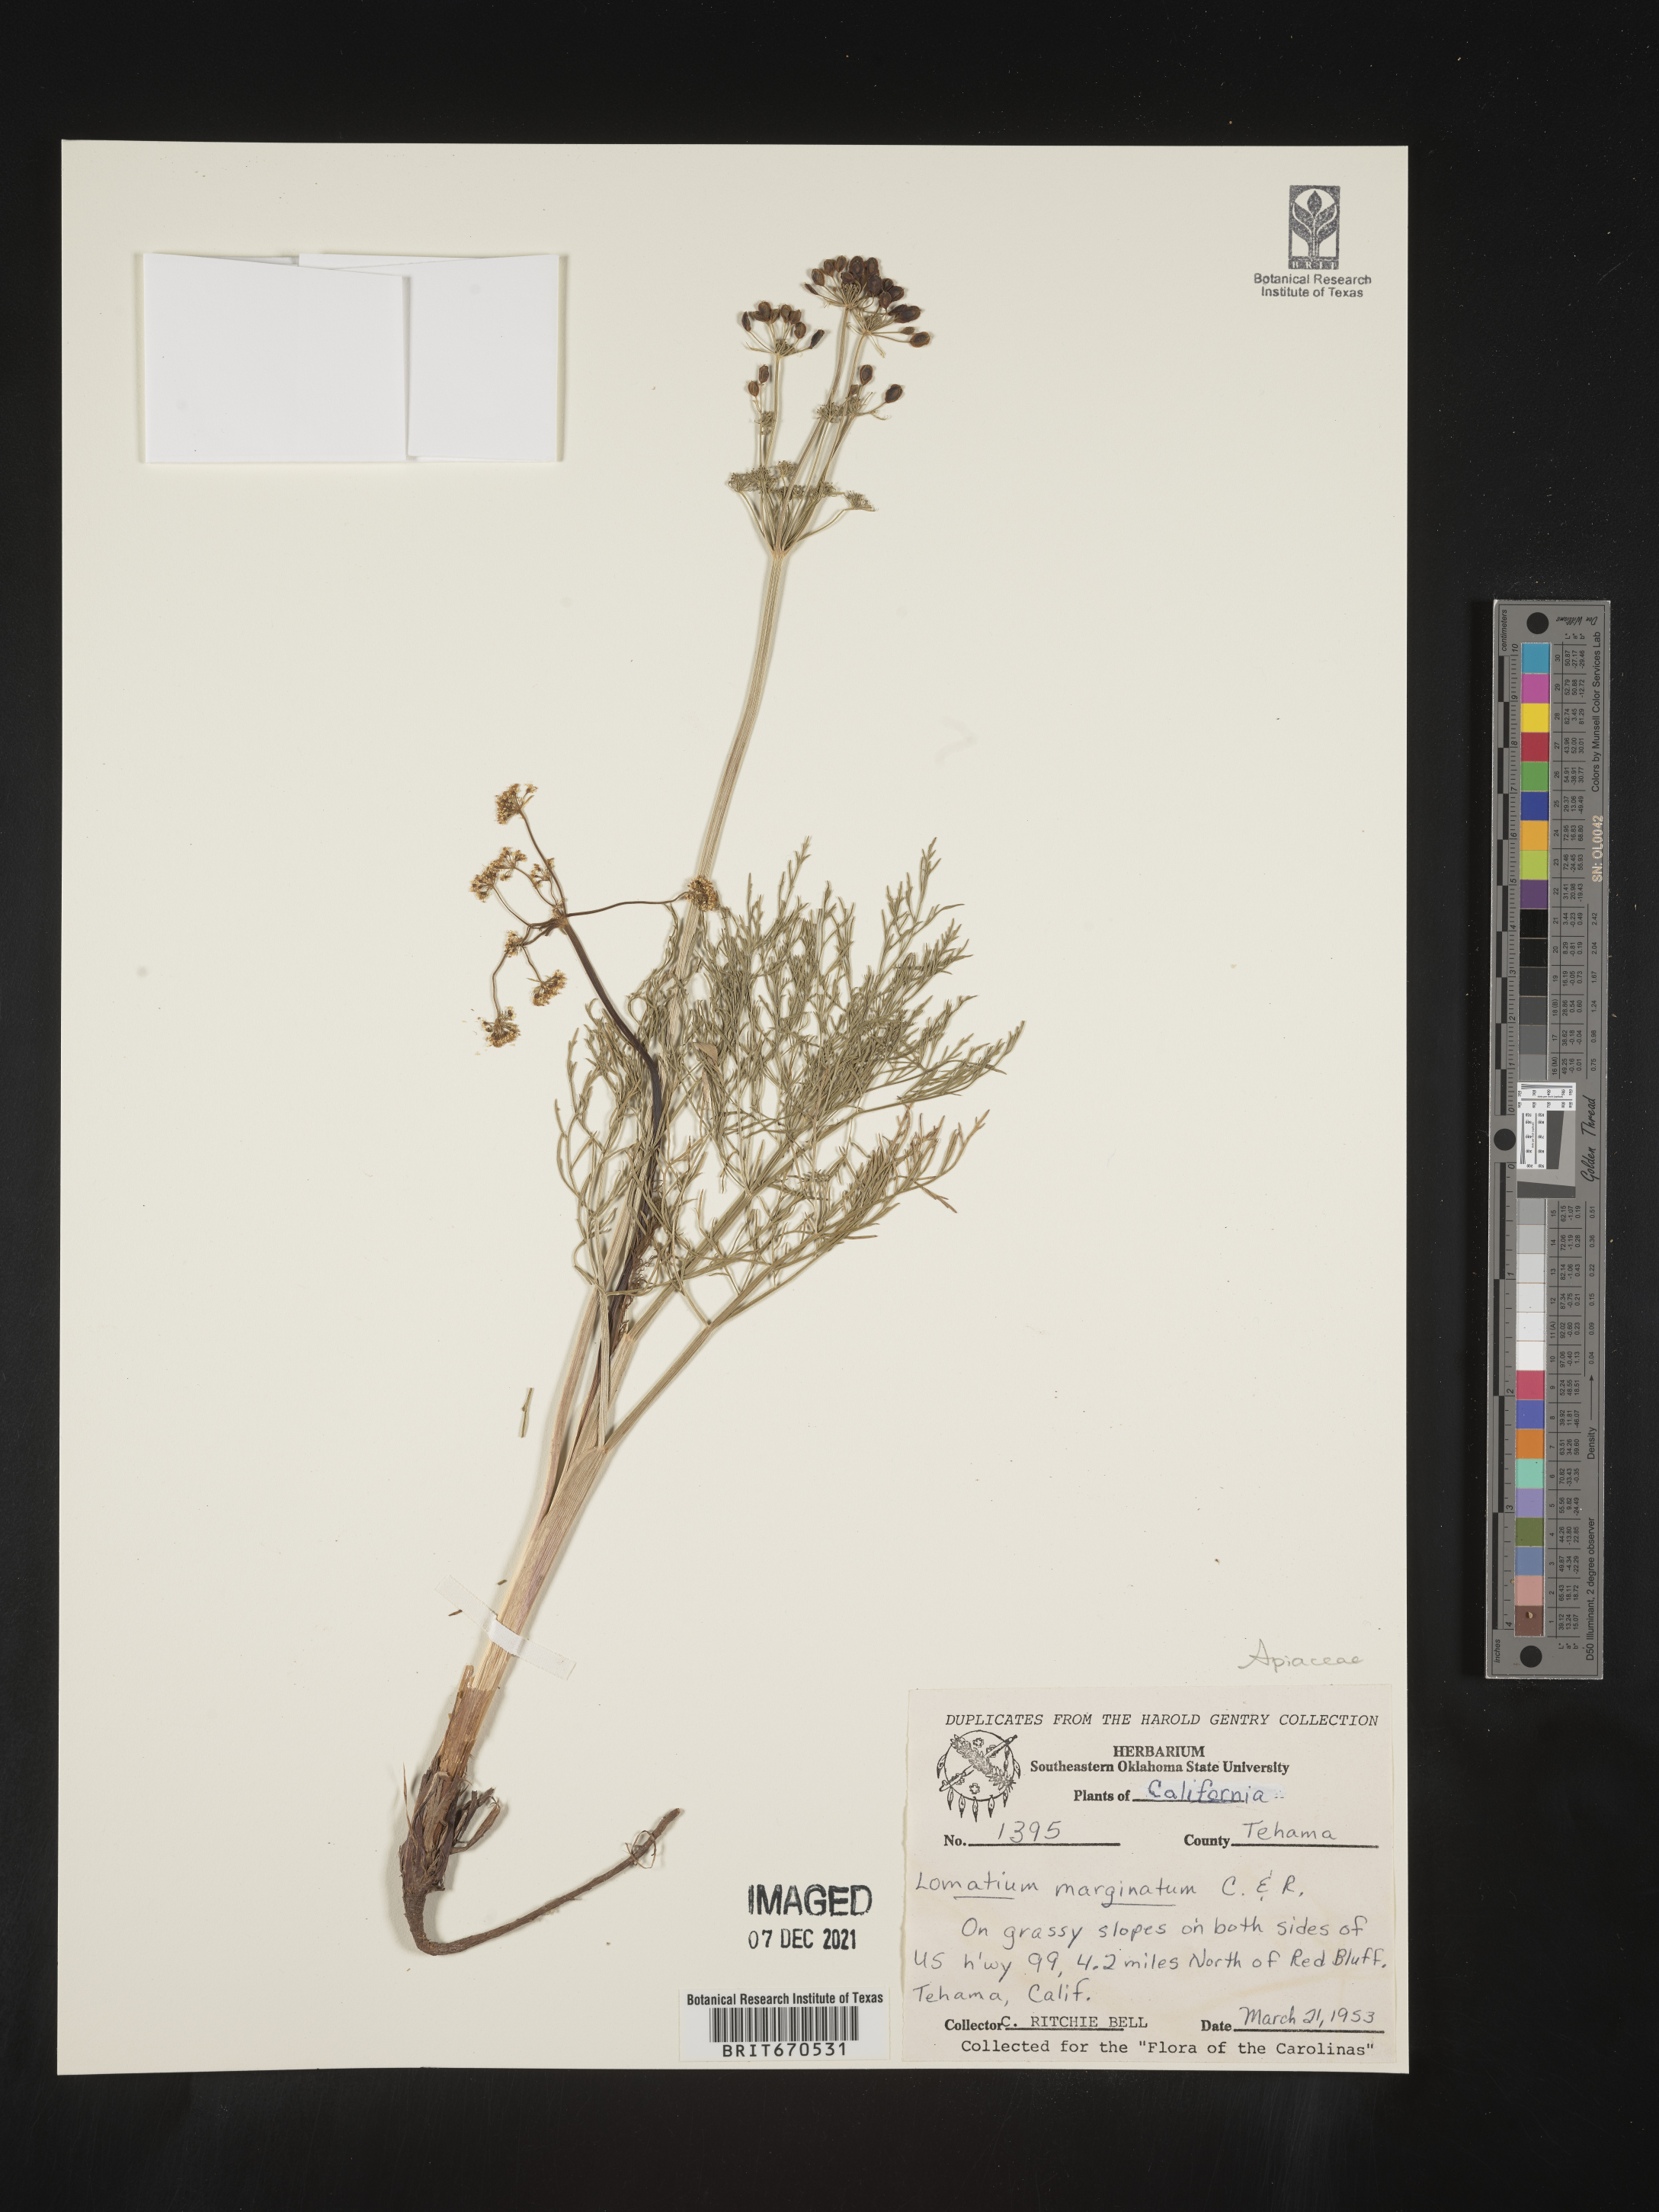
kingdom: Plantae
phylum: Tracheophyta
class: Magnoliopsida
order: Apiales
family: Apiaceae
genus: Lomatium
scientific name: Lomatium marginatum
